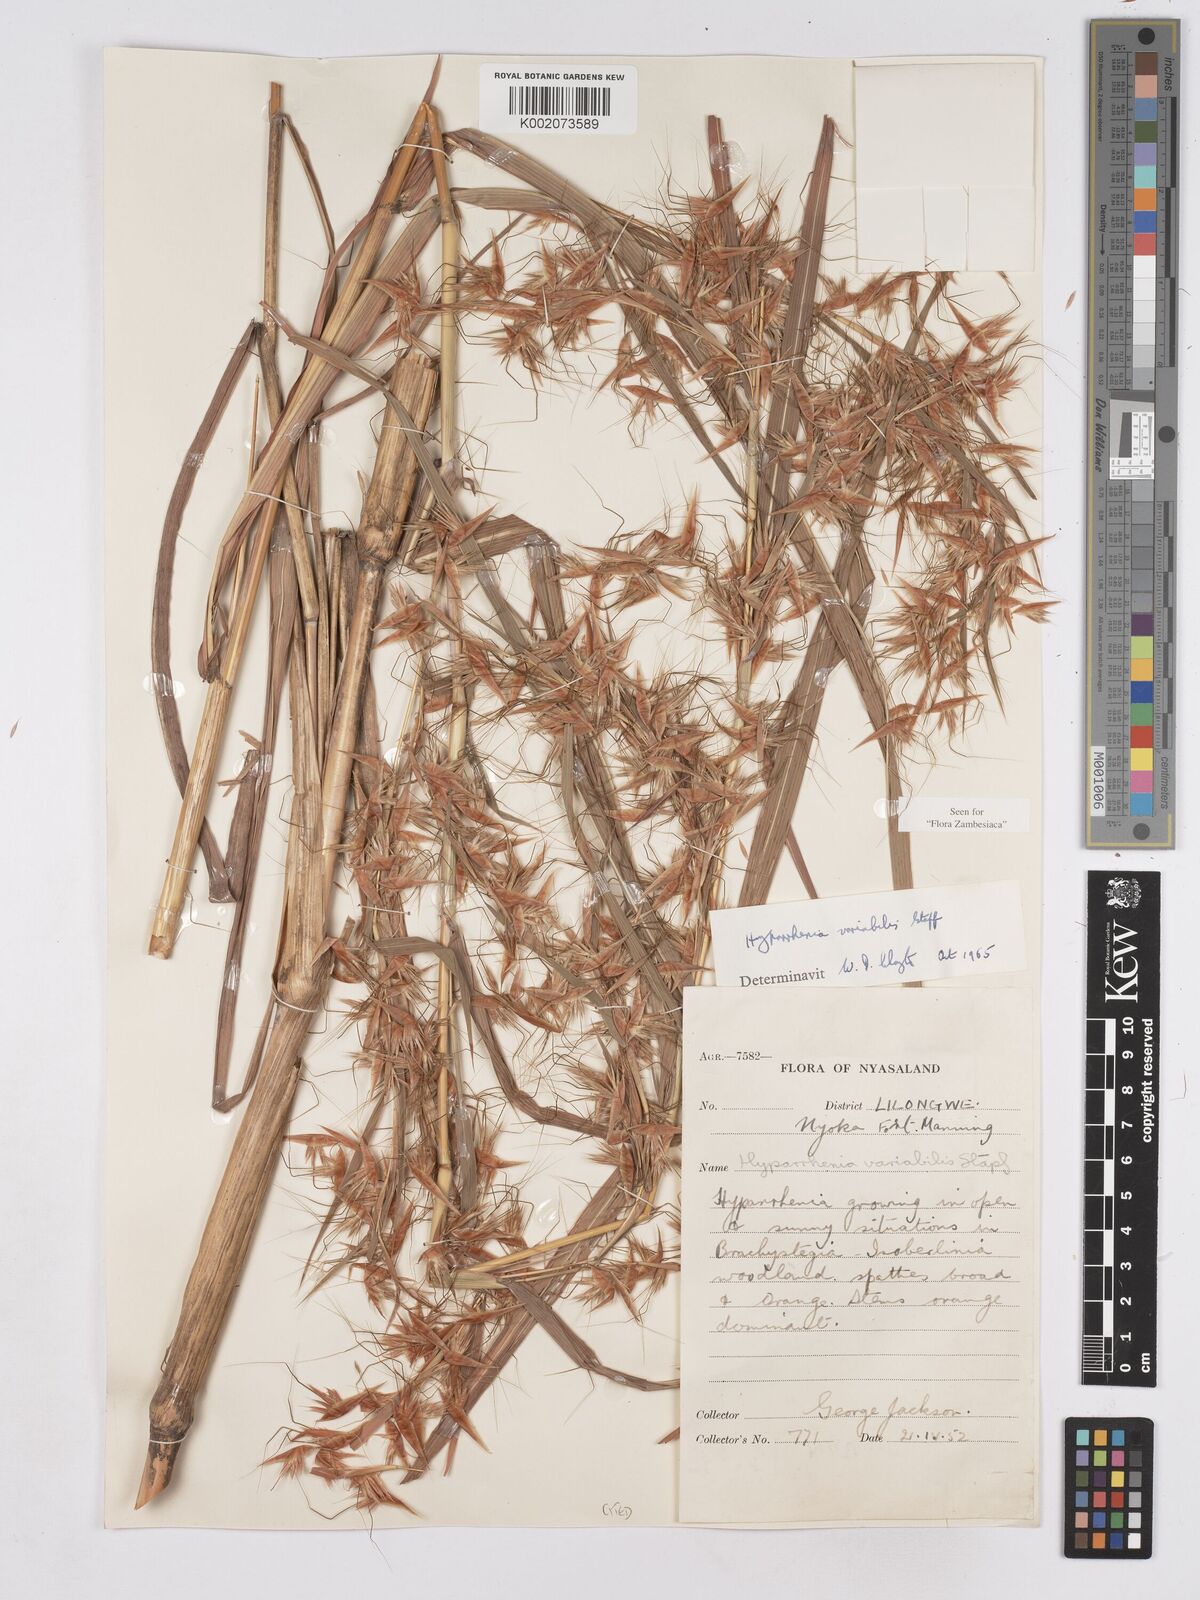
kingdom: Plantae
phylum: Tracheophyta
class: Liliopsida
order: Poales
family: Poaceae
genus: Hyparrhenia
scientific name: Hyparrhenia variabilis
